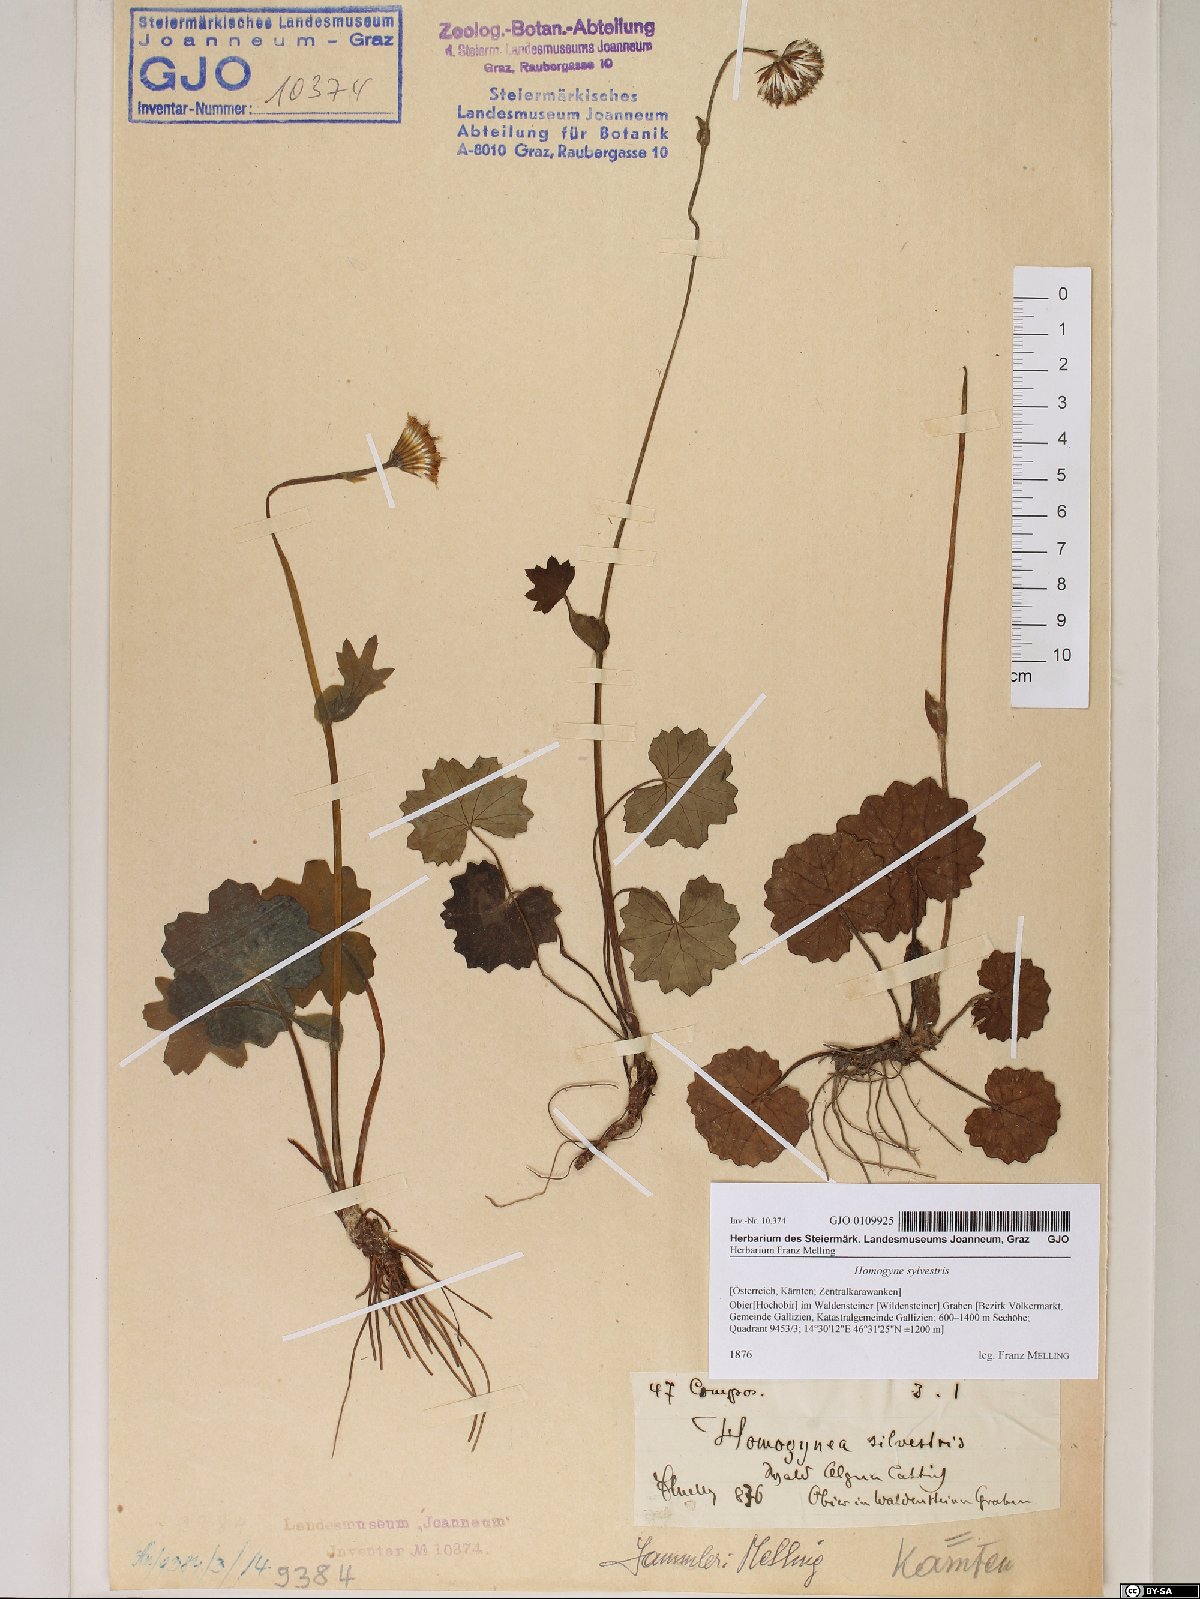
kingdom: Plantae
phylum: Tracheophyta
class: Magnoliopsida
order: Asterales
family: Asteraceae
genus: Homogyne
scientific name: Homogyne sylvestris
